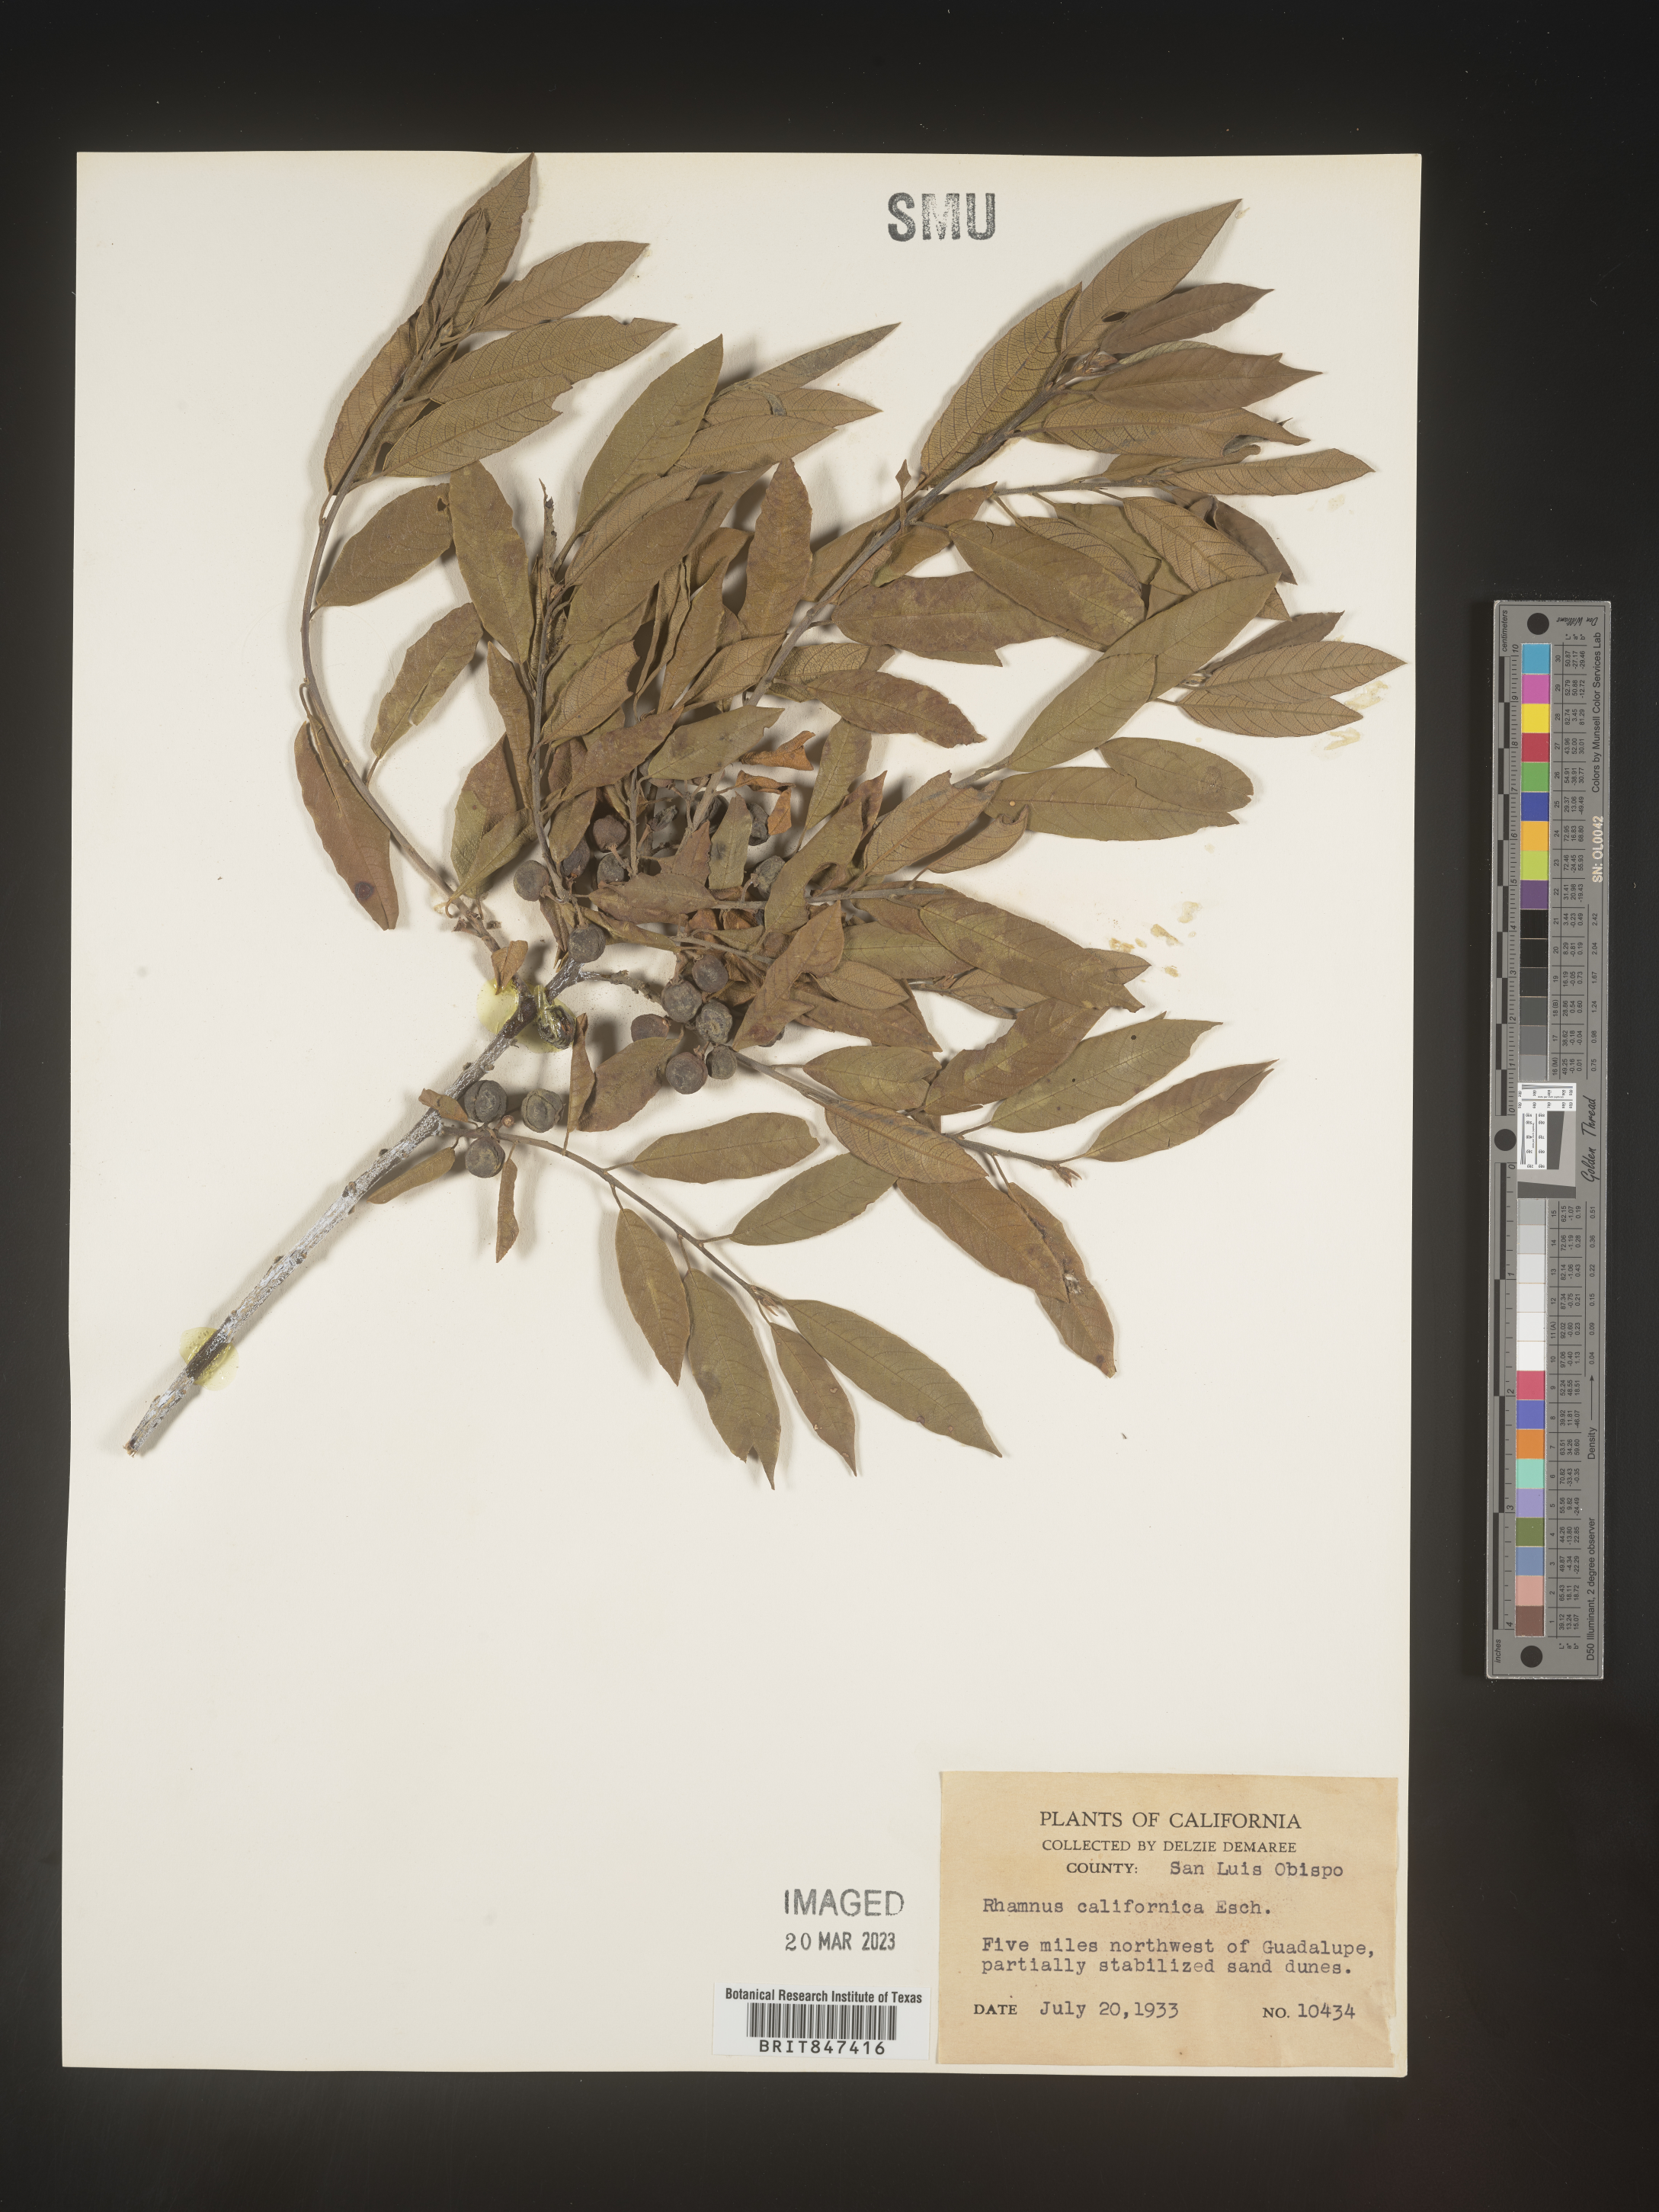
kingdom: Plantae
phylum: Tracheophyta
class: Magnoliopsida
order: Rosales
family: Rhamnaceae
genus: Frangula
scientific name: Frangula californica
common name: California buckthorn
